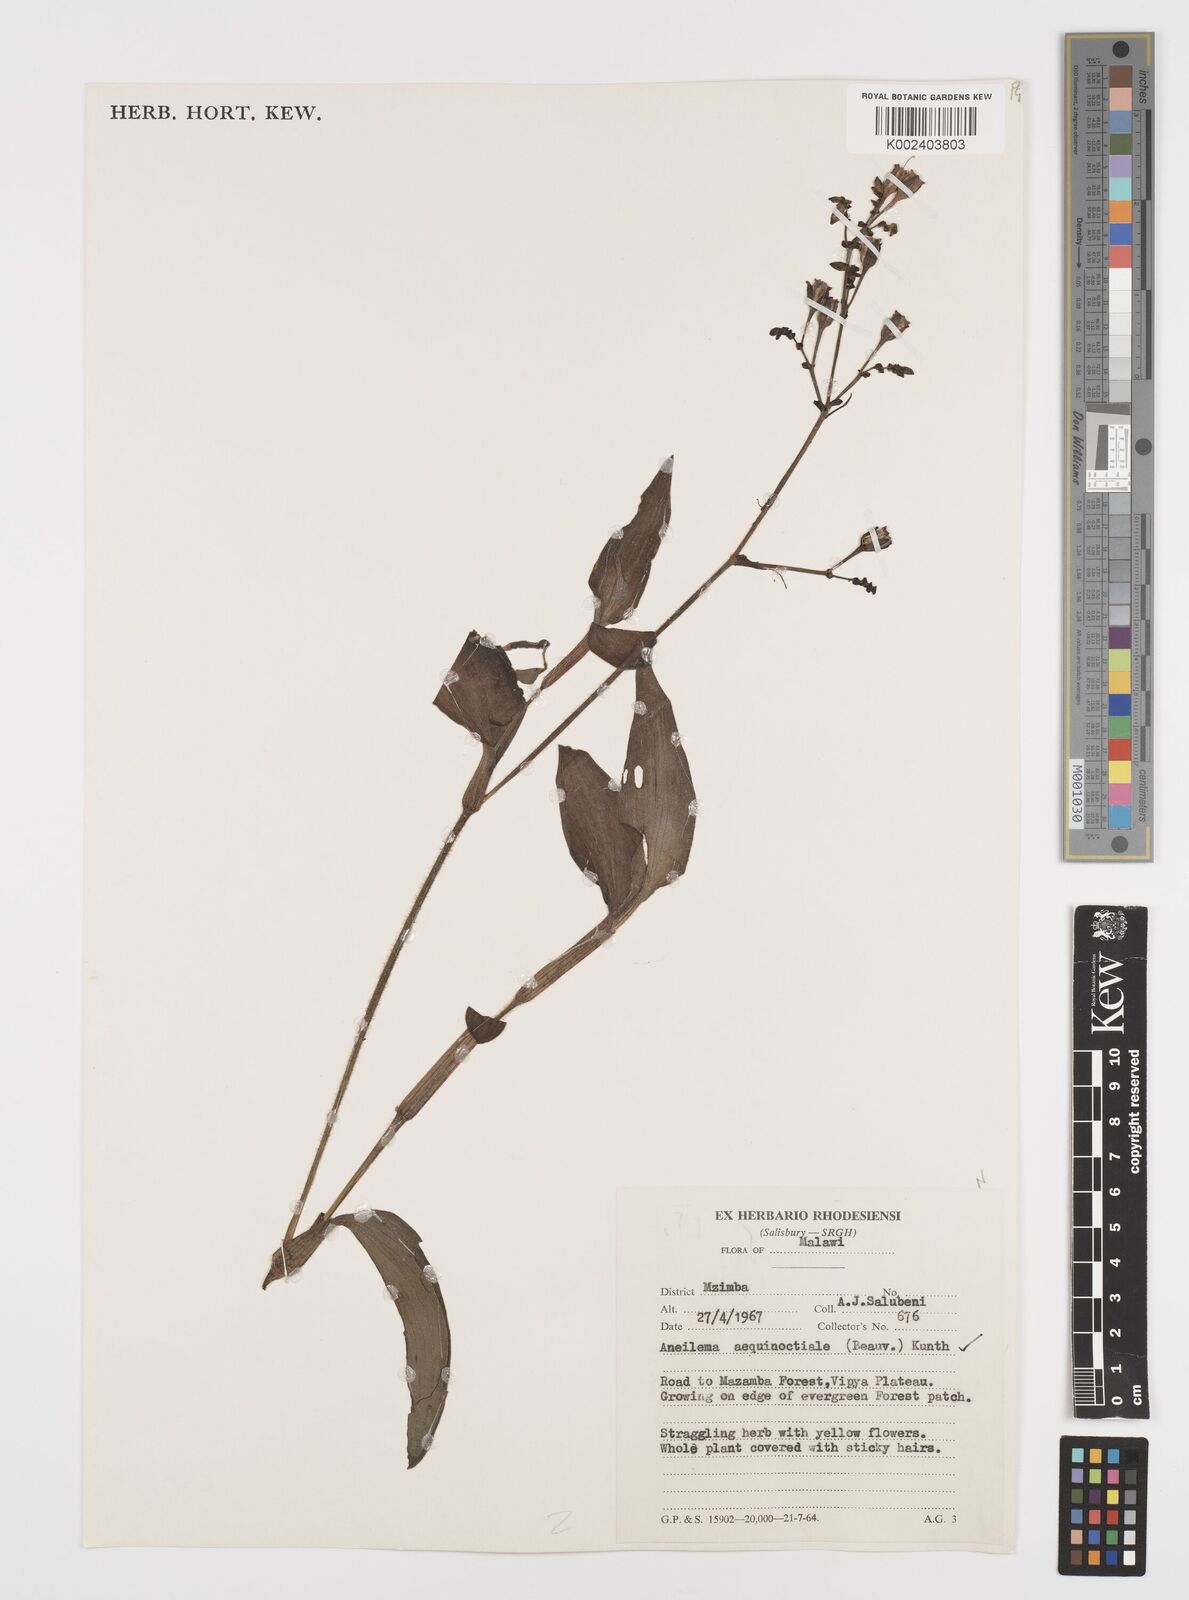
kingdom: Plantae
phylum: Tracheophyta
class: Liliopsida
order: Commelinales
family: Commelinaceae
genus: Aneilema
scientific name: Aneilema aequinoctiale
